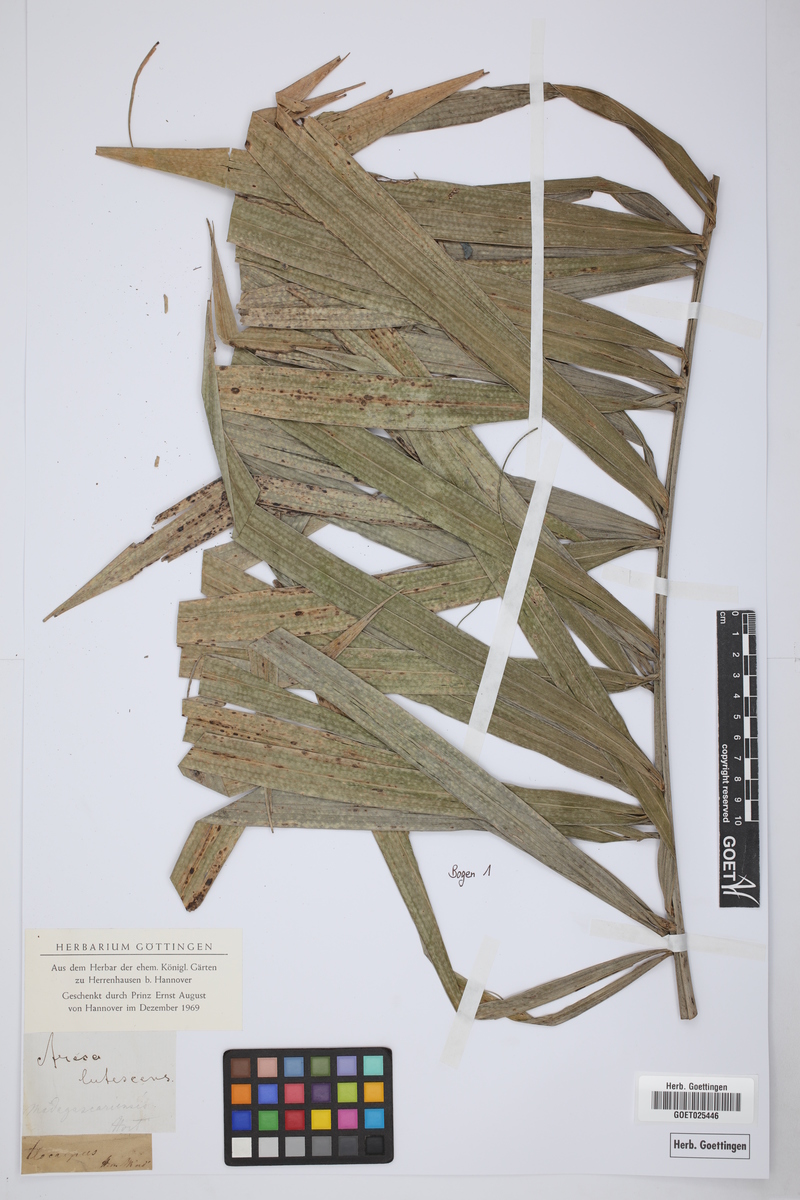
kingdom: Plantae
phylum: Tracheophyta
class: Liliopsida
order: Arecales
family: Arecaceae
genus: Hyophorbe
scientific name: Hyophorbe indica
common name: Palmiste poison
